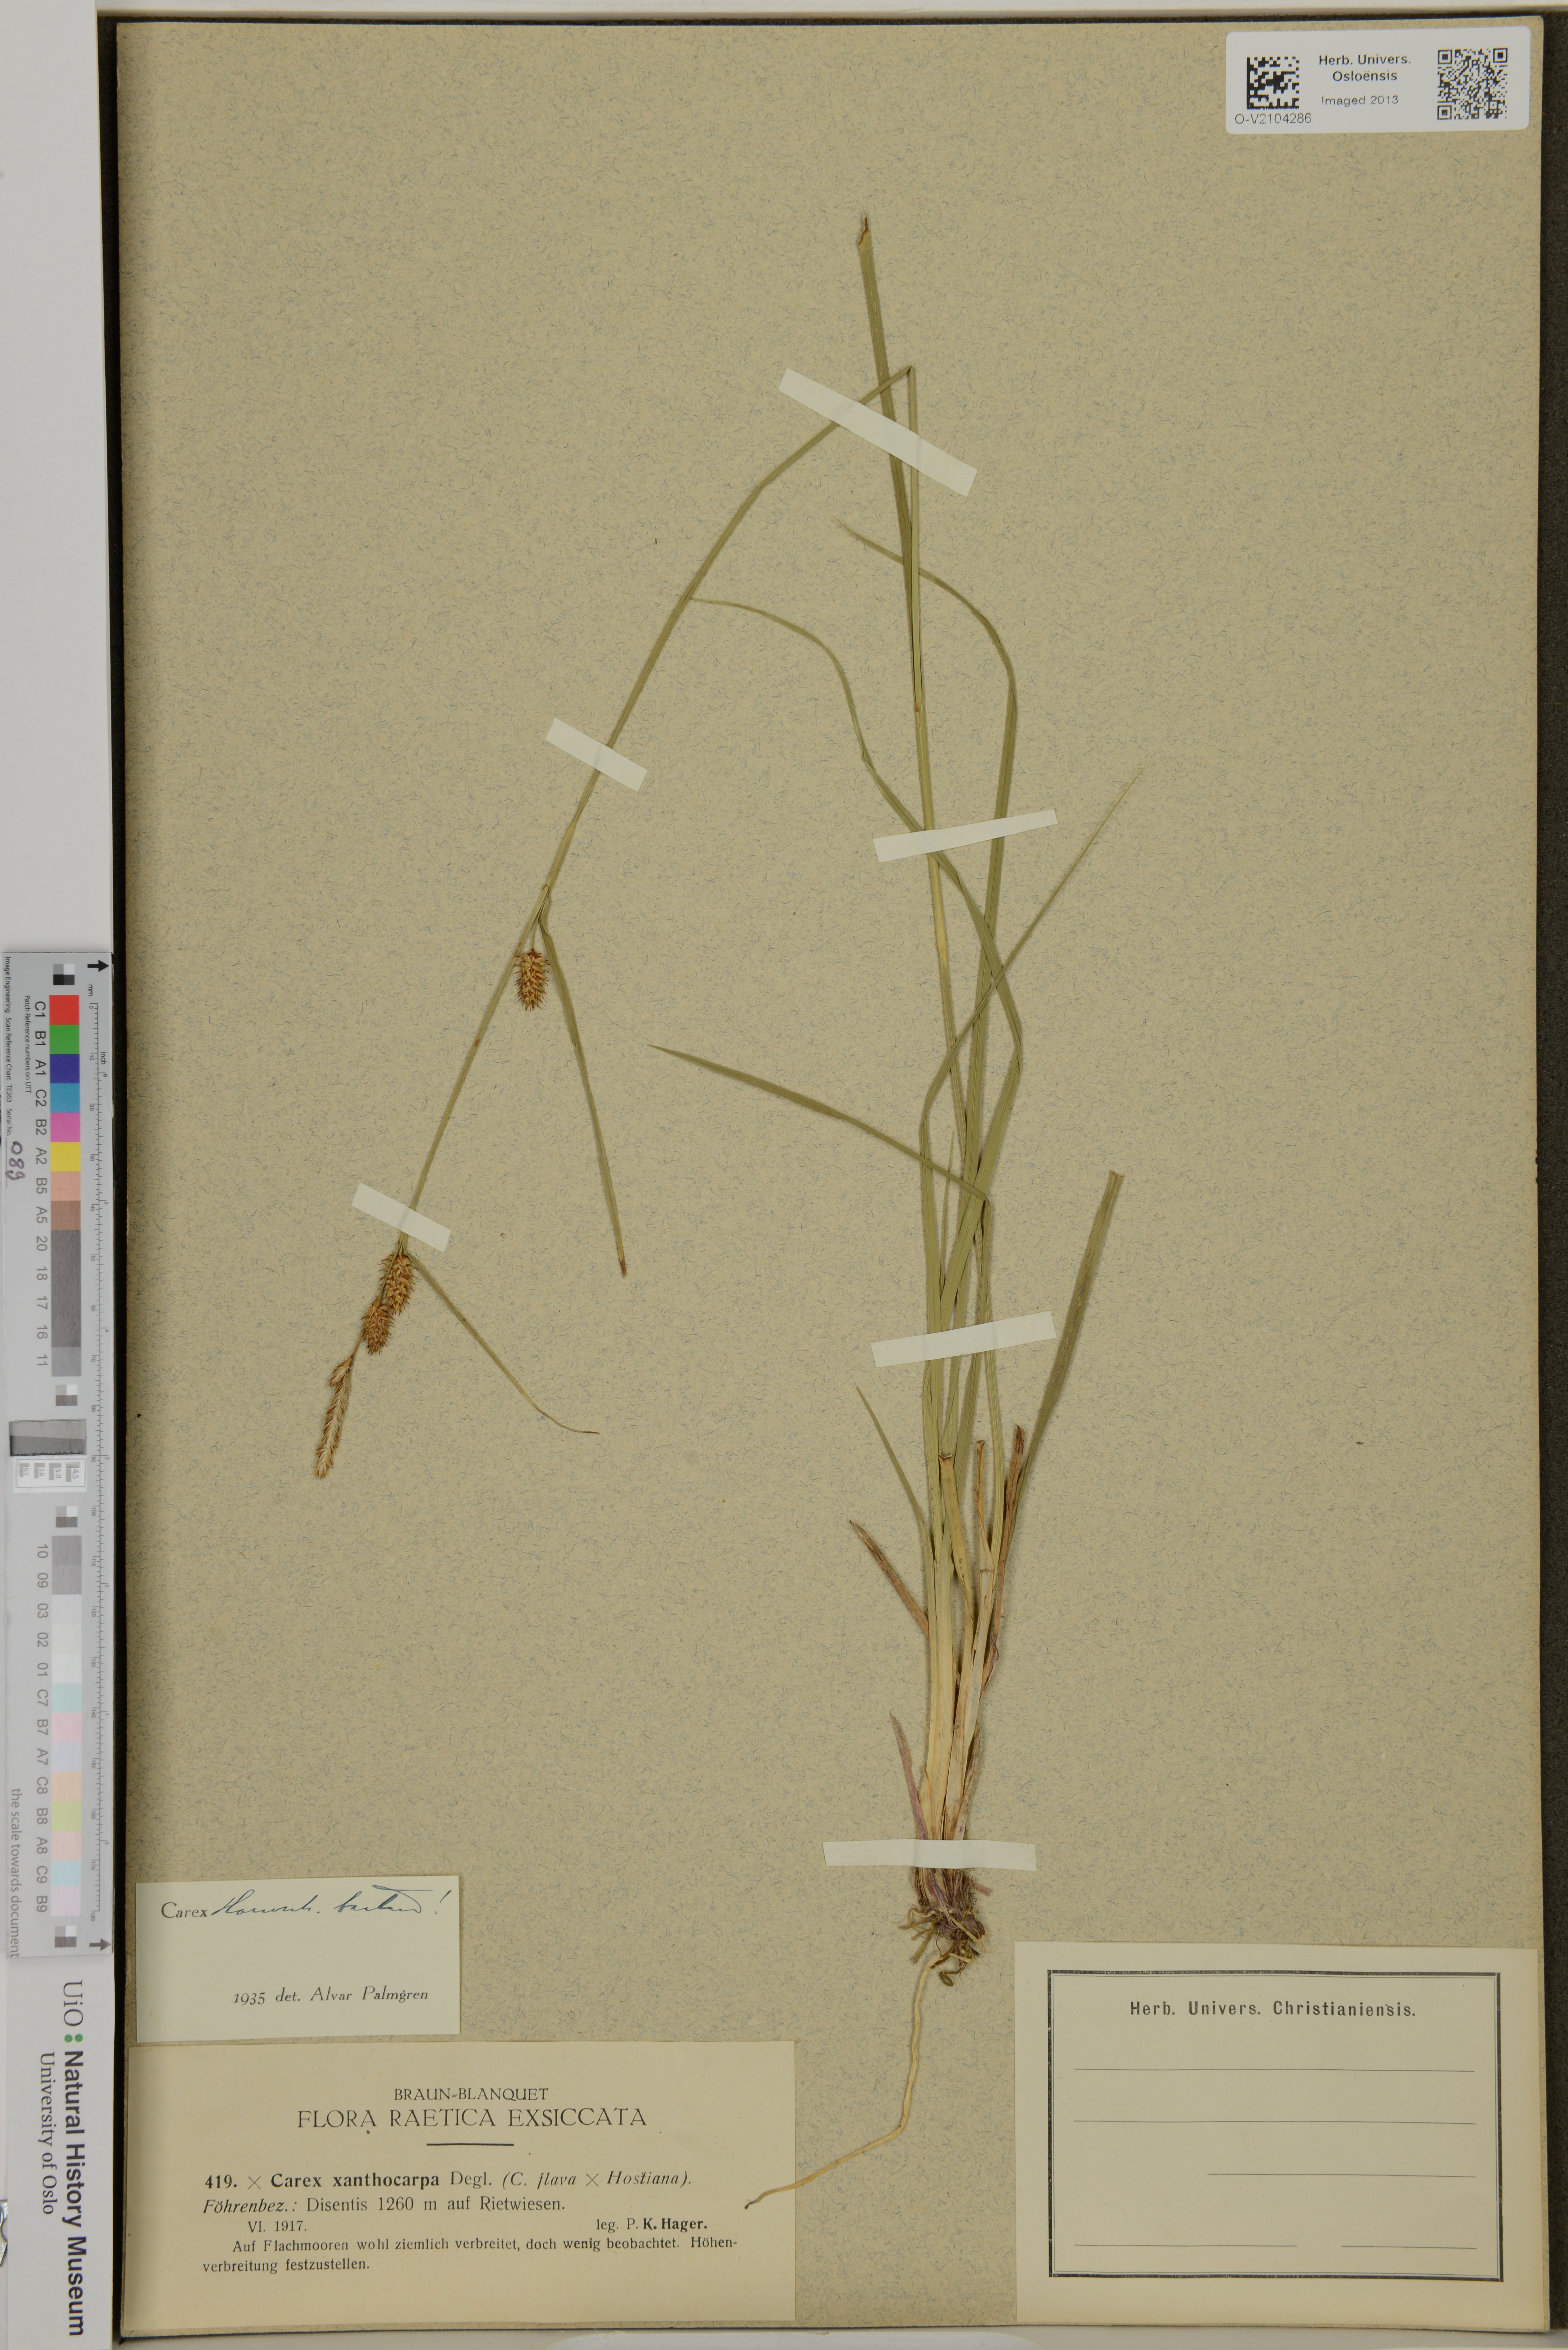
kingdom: Plantae
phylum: Tracheophyta
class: Liliopsida
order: Poales
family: Cyperaceae
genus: Carex
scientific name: Carex hostiana
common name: Tawny sedge
